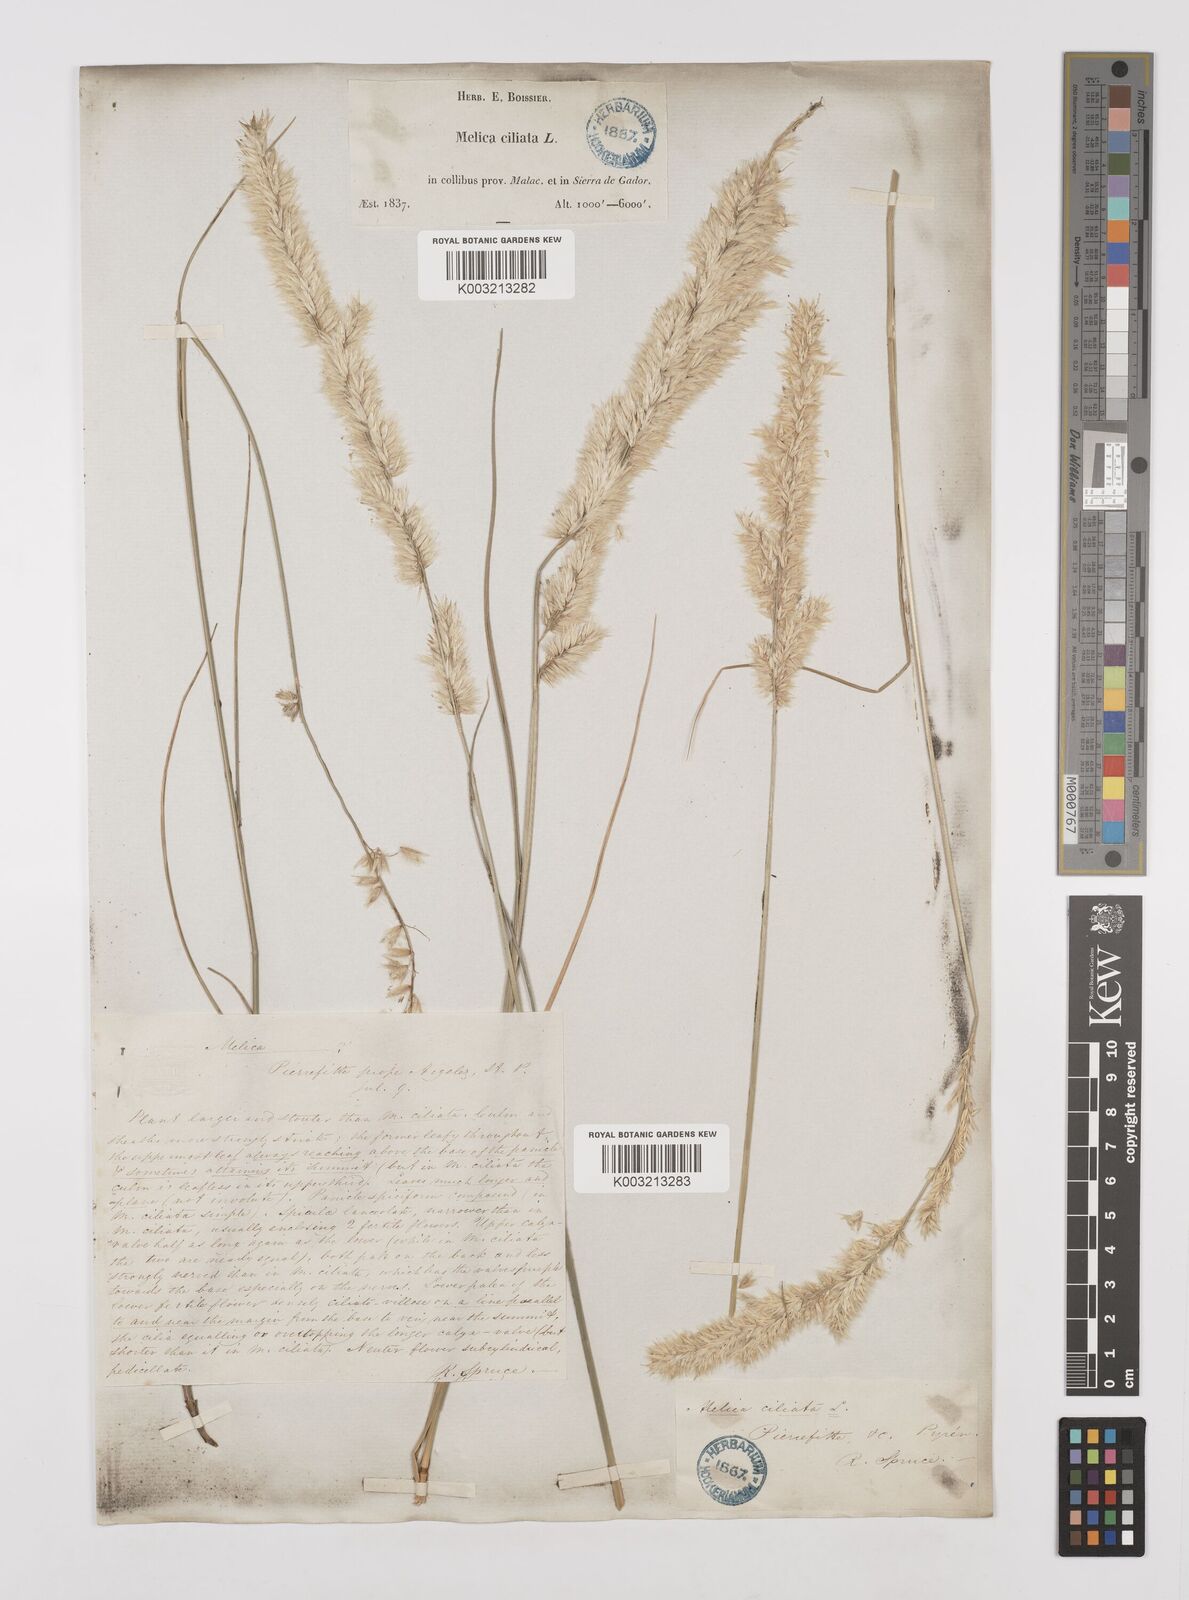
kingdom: Plantae
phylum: Tracheophyta
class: Liliopsida
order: Poales
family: Poaceae
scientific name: Poaceae
